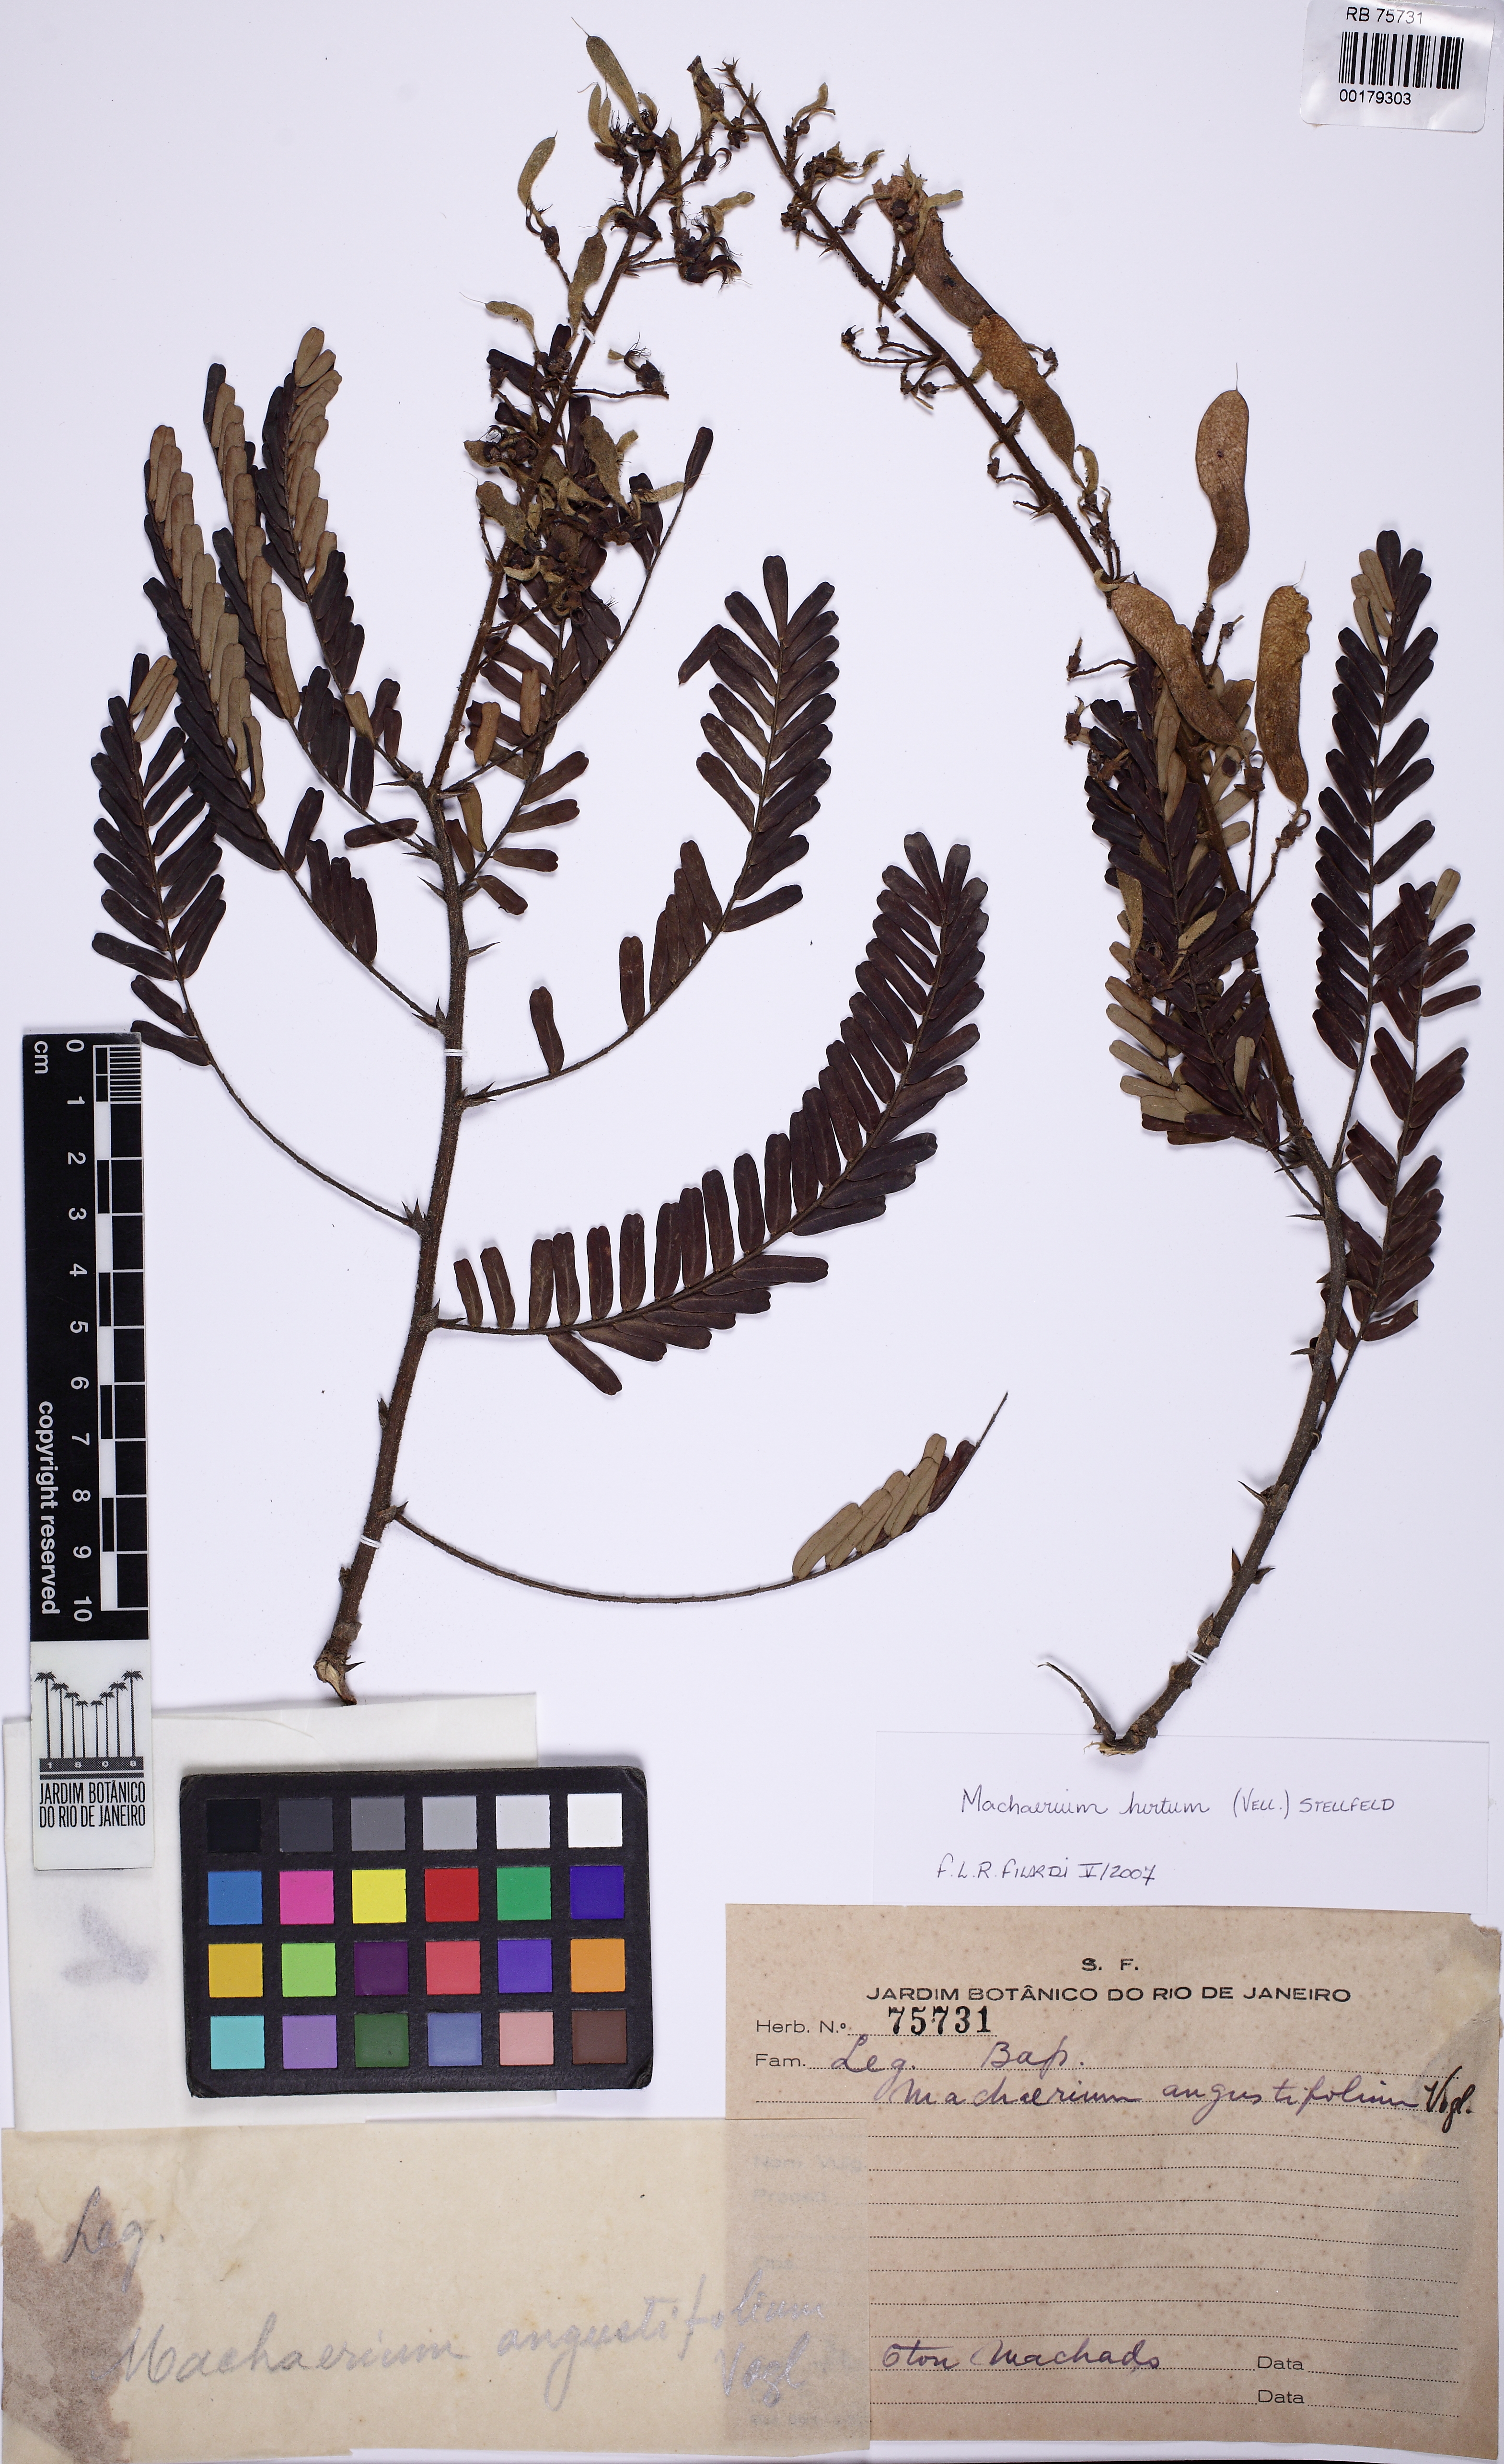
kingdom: Plantae
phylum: Tracheophyta
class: Magnoliopsida
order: Fabales
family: Fabaceae
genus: Machaerium
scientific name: Machaerium hirtum
